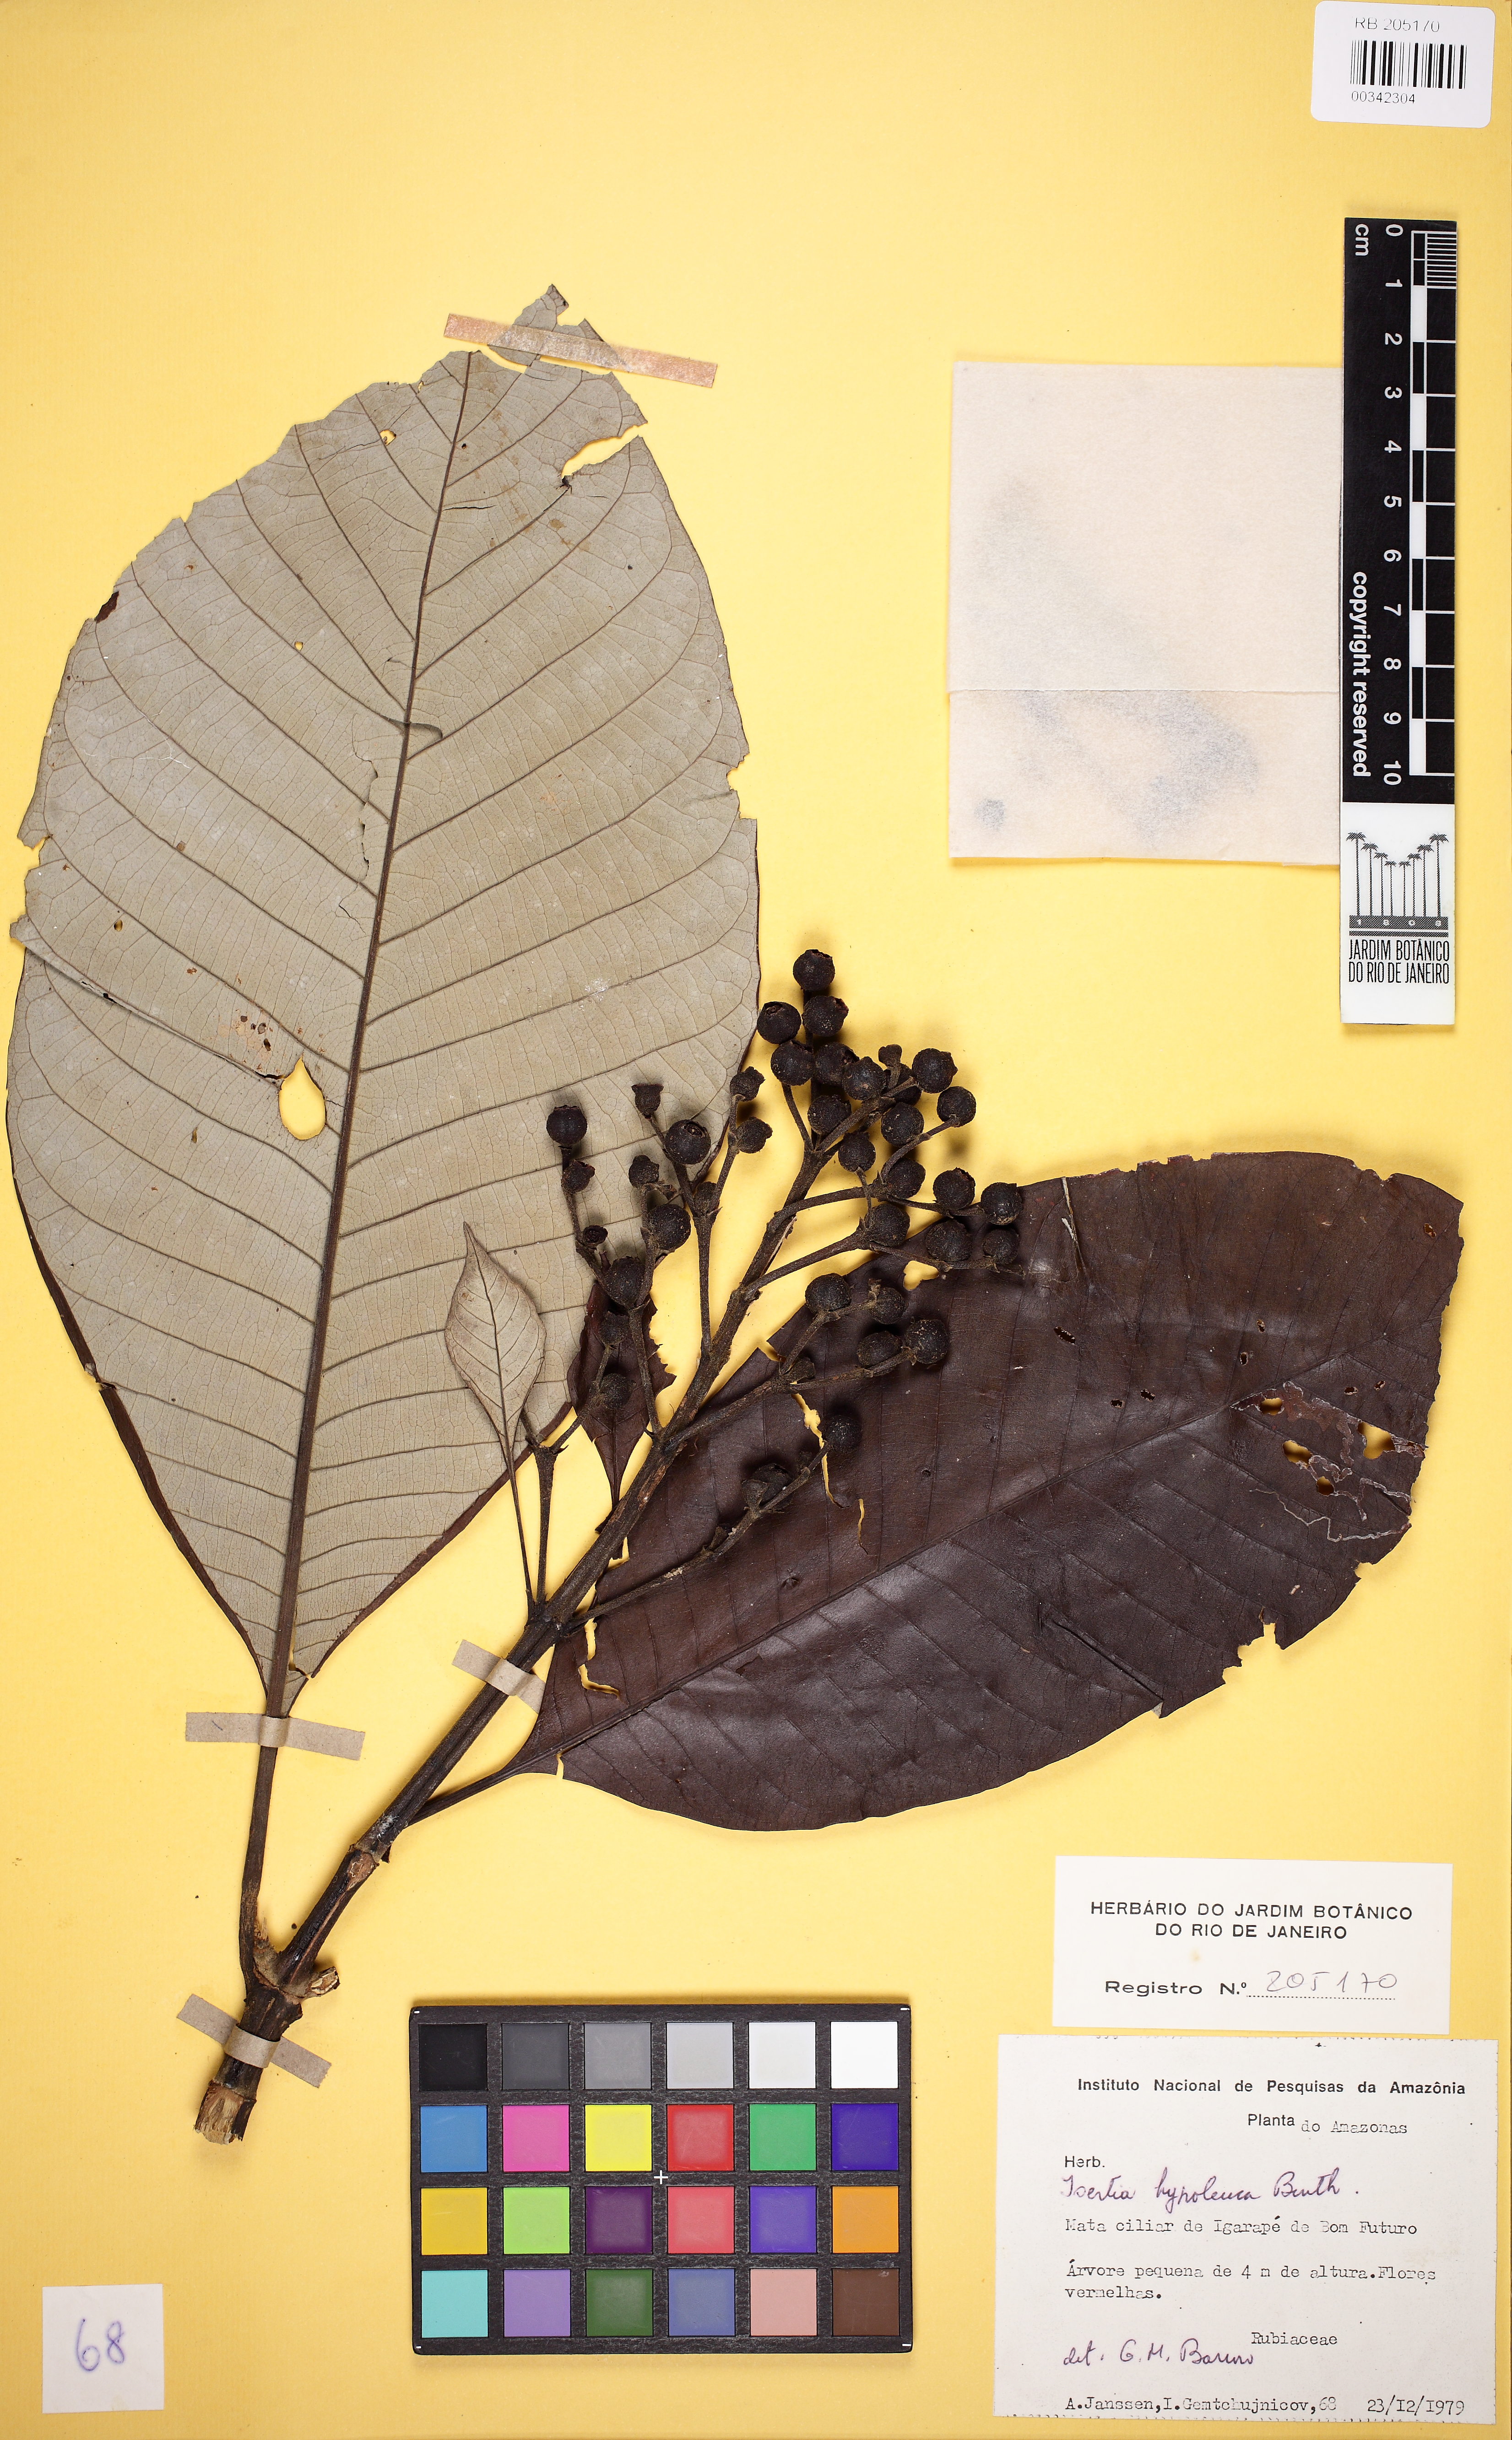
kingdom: Plantae
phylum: Tracheophyta
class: Magnoliopsida
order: Gentianales
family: Rubiaceae
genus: Isertia
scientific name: Isertia hypoleuca
